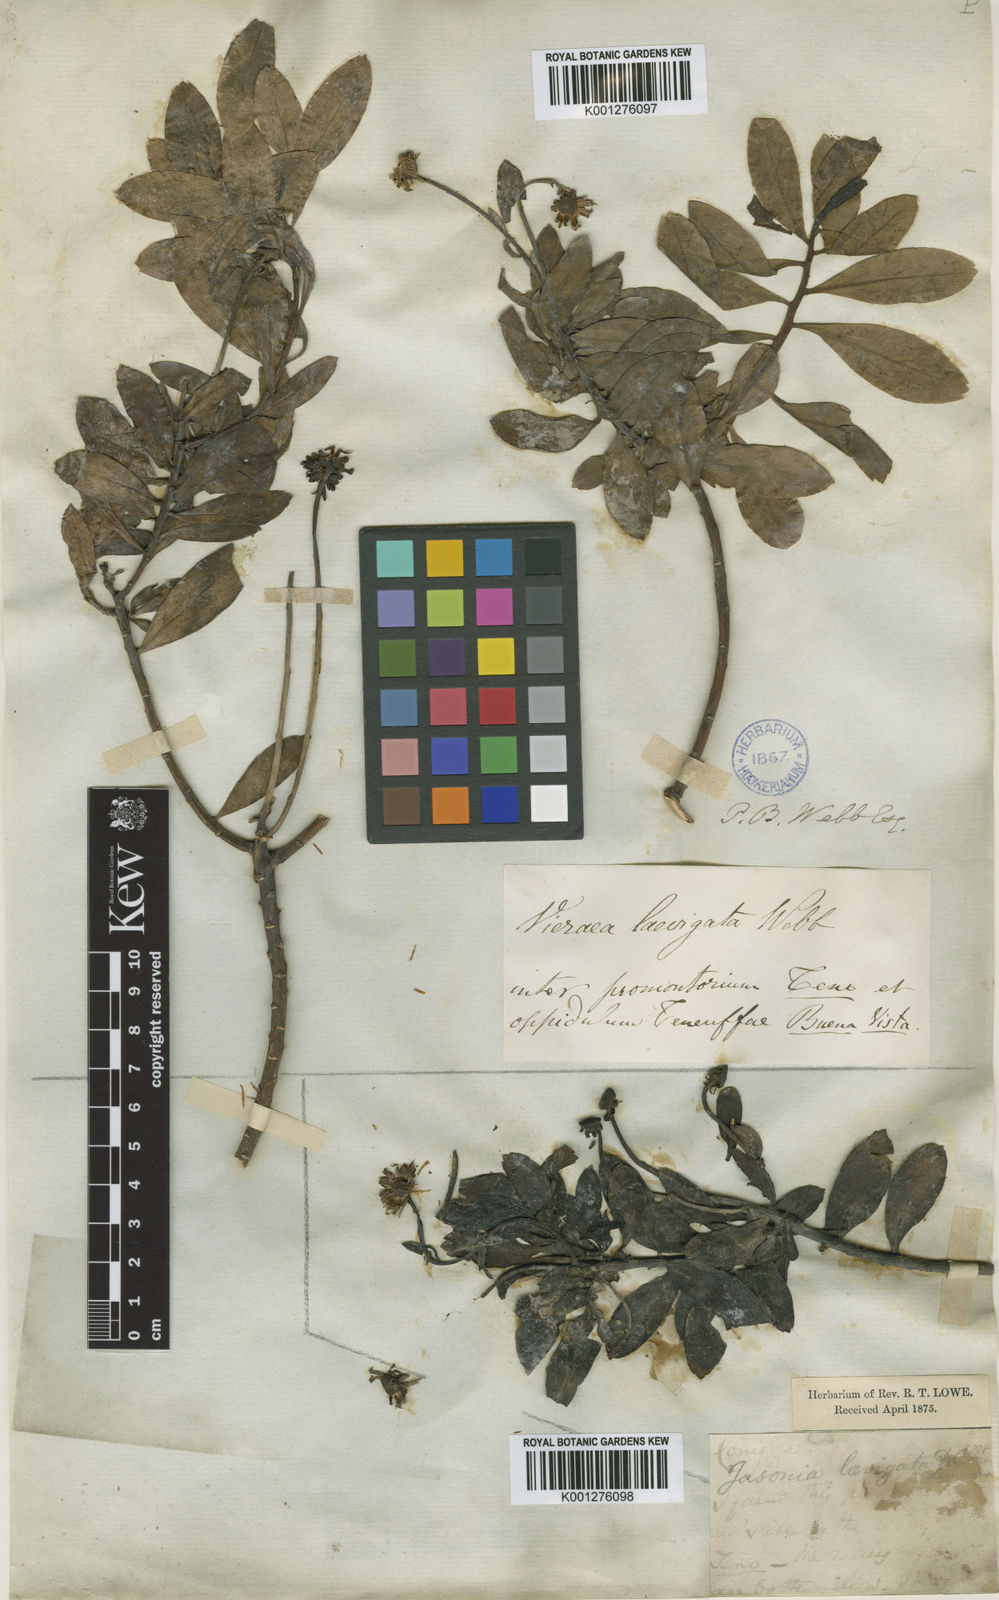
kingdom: Plantae
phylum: Tracheophyta
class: Magnoliopsida
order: Asterales
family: Asteraceae
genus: Vieraea
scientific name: Vieraea laevigata
